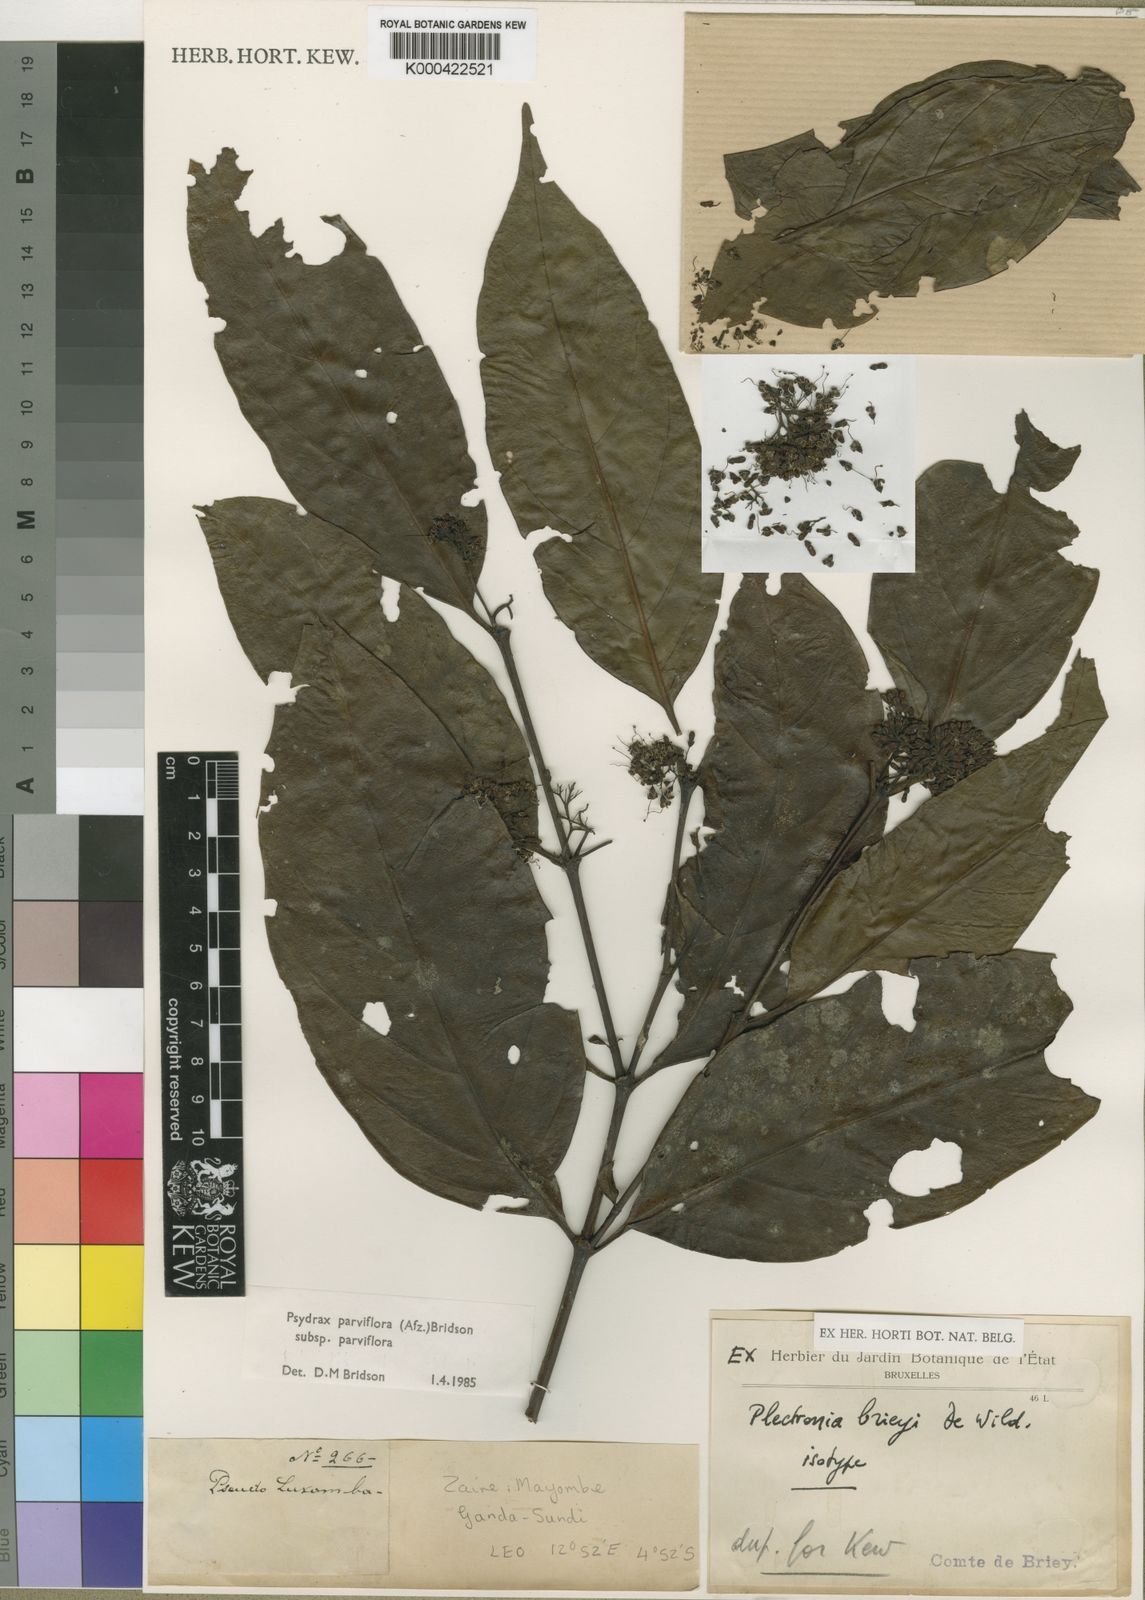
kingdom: Plantae
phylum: Tracheophyta
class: Magnoliopsida
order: Gentianales
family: Rubiaceae
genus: Psydrax
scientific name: Psydrax parviflorus
